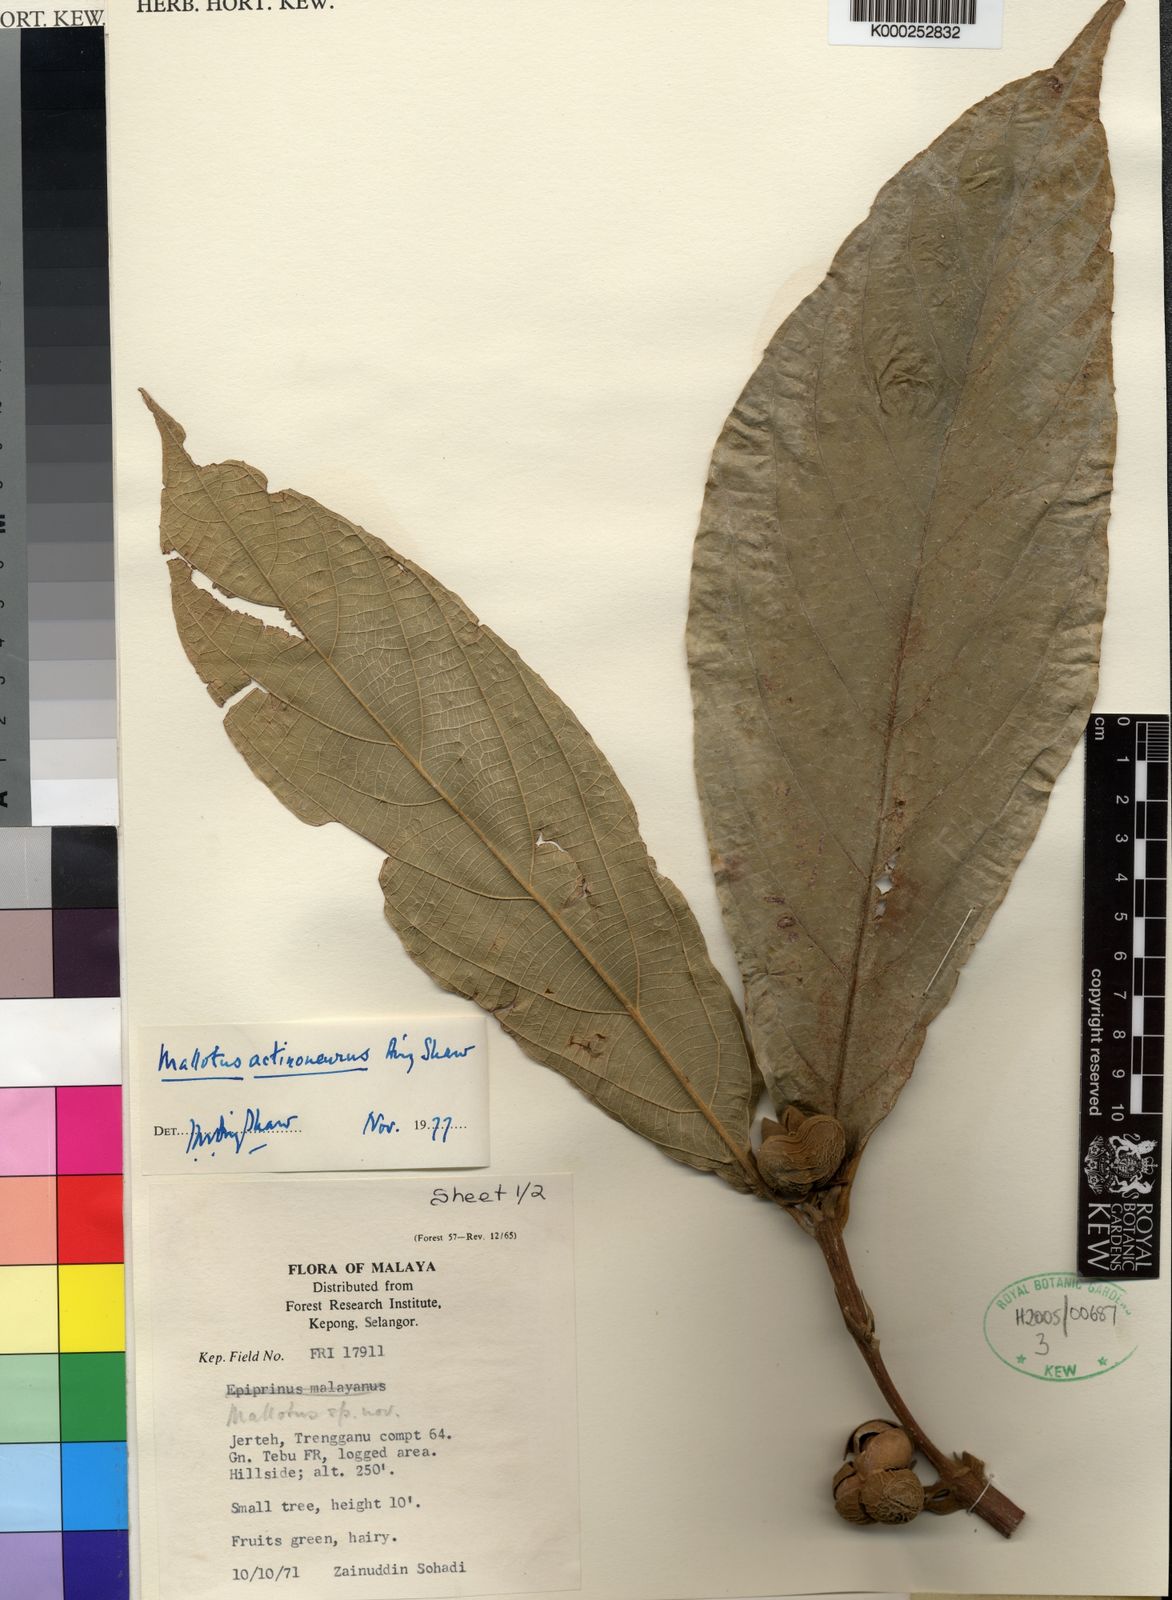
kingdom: Plantae
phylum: Tracheophyta
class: Magnoliopsida
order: Malpighiales
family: Euphorbiaceae
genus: Mallotus
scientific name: Mallotus actinoneurus
